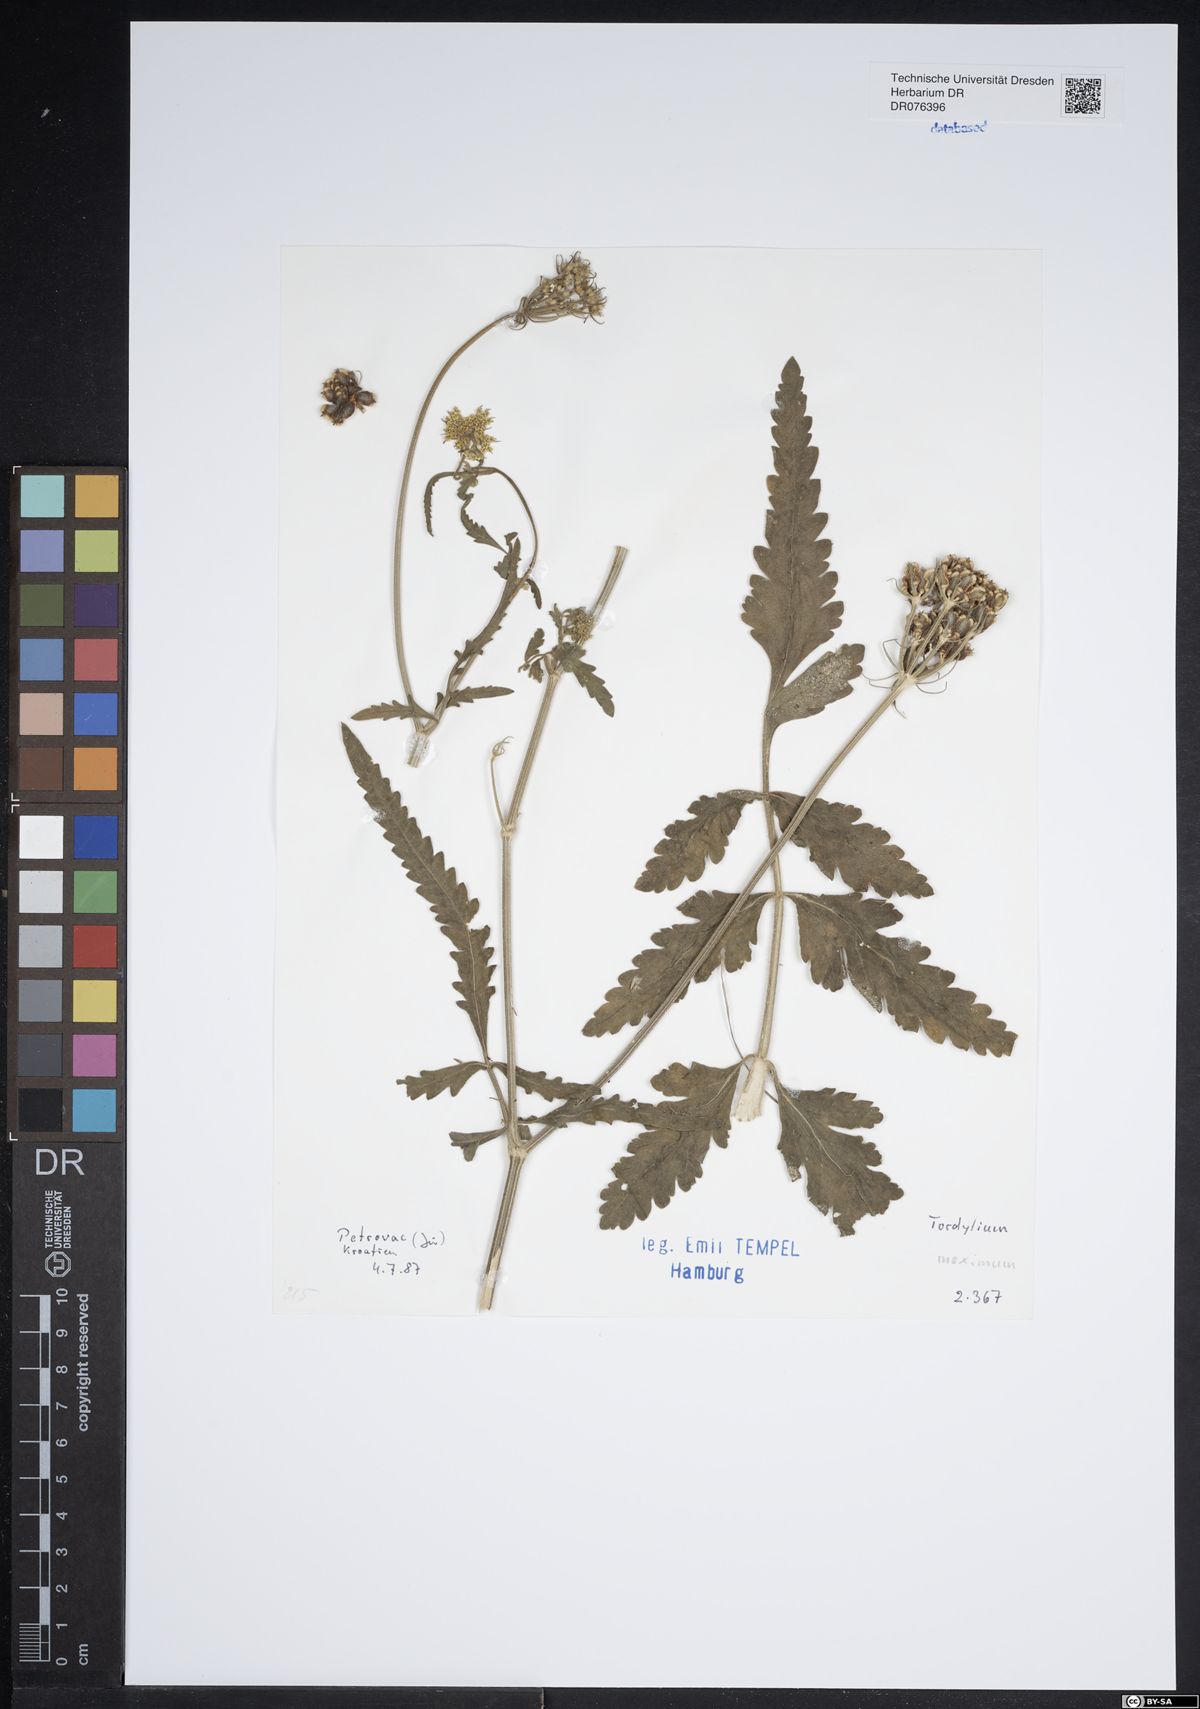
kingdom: Plantae
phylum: Tracheophyta
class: Magnoliopsida
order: Apiales
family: Apiaceae
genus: Tordylium
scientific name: Tordylium maximum
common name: Hartwort
